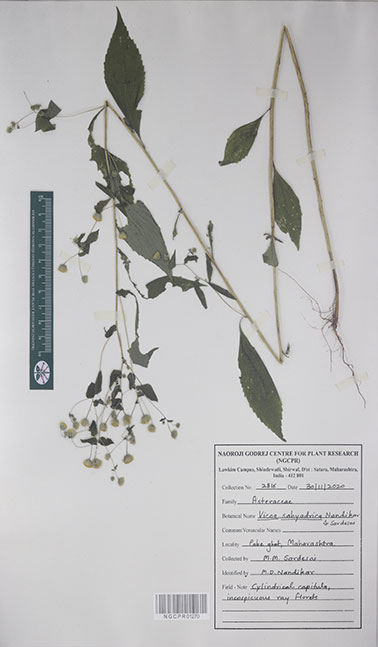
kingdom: Plantae
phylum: Tracheophyta
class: Magnoliopsida
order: Asterales
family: Asteraceae
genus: Vicoa
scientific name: Vicoa sahyadrica
